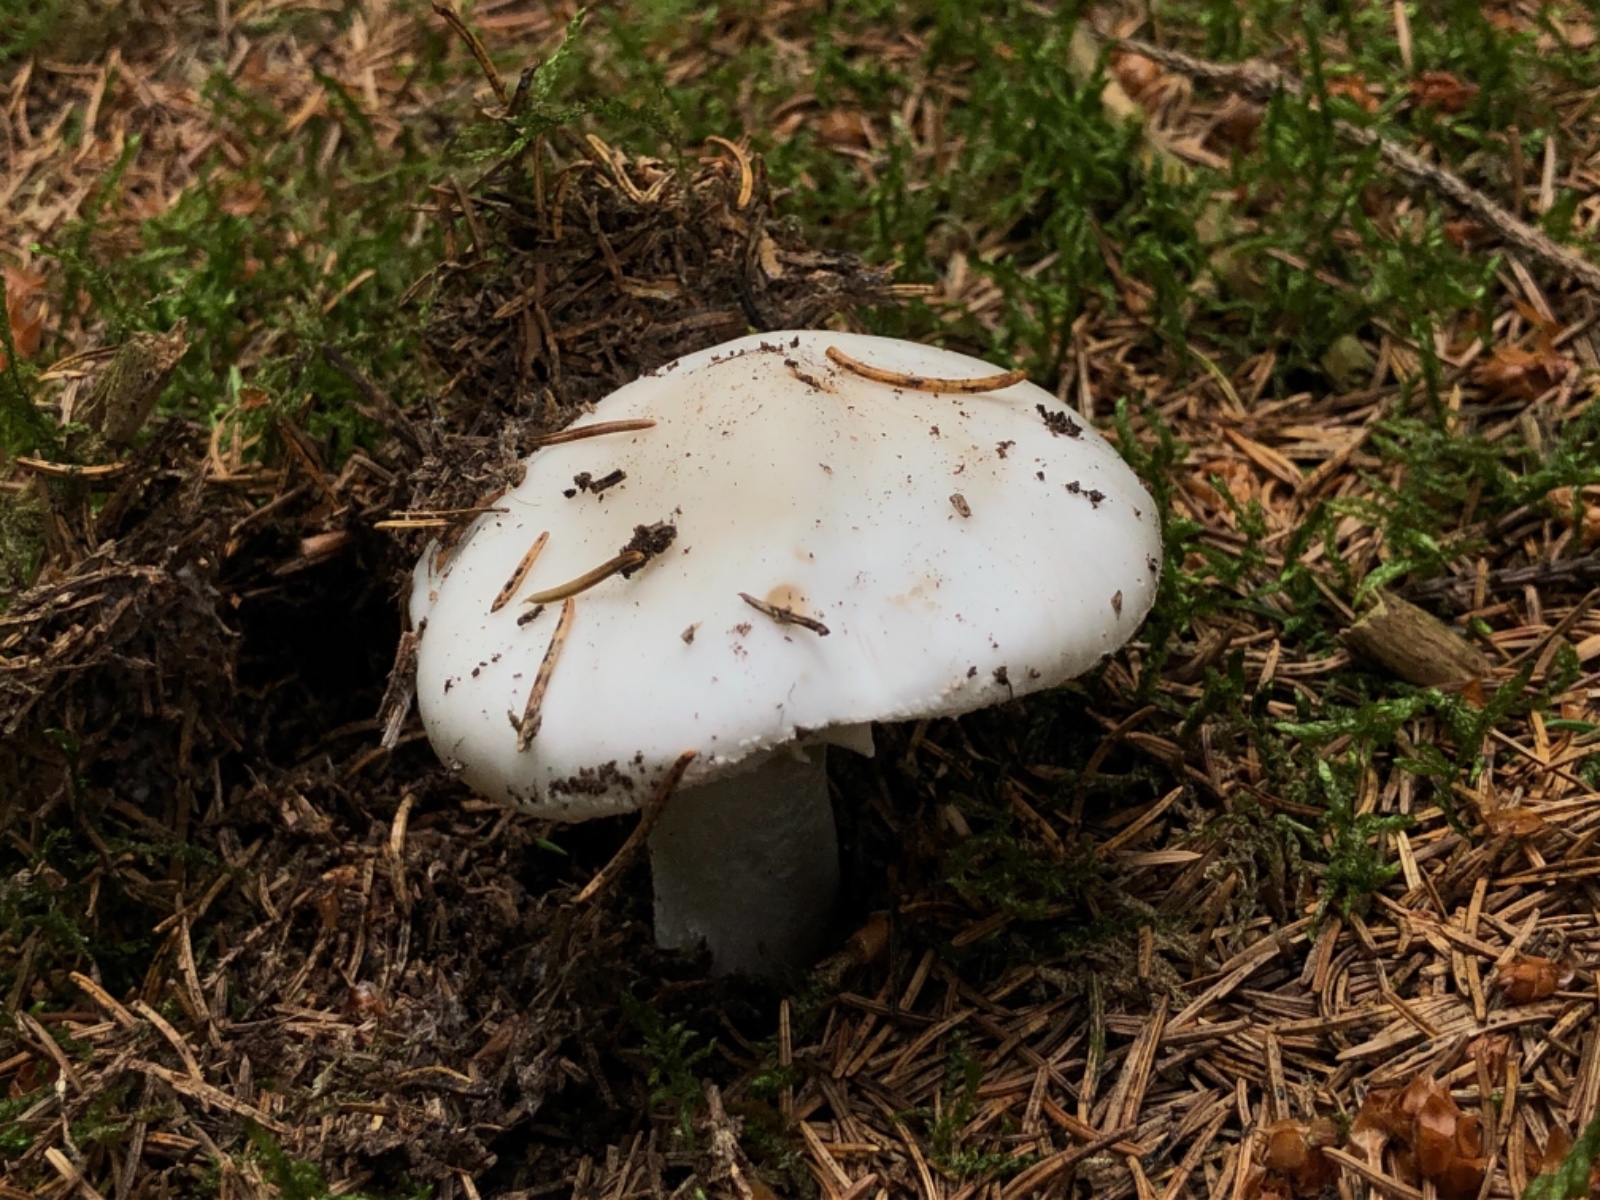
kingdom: Fungi
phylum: Basidiomycota
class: Agaricomycetes
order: Agaricales
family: Amanitaceae
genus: Amanita
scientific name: Amanita virosa
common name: snehvid fluesvamp
